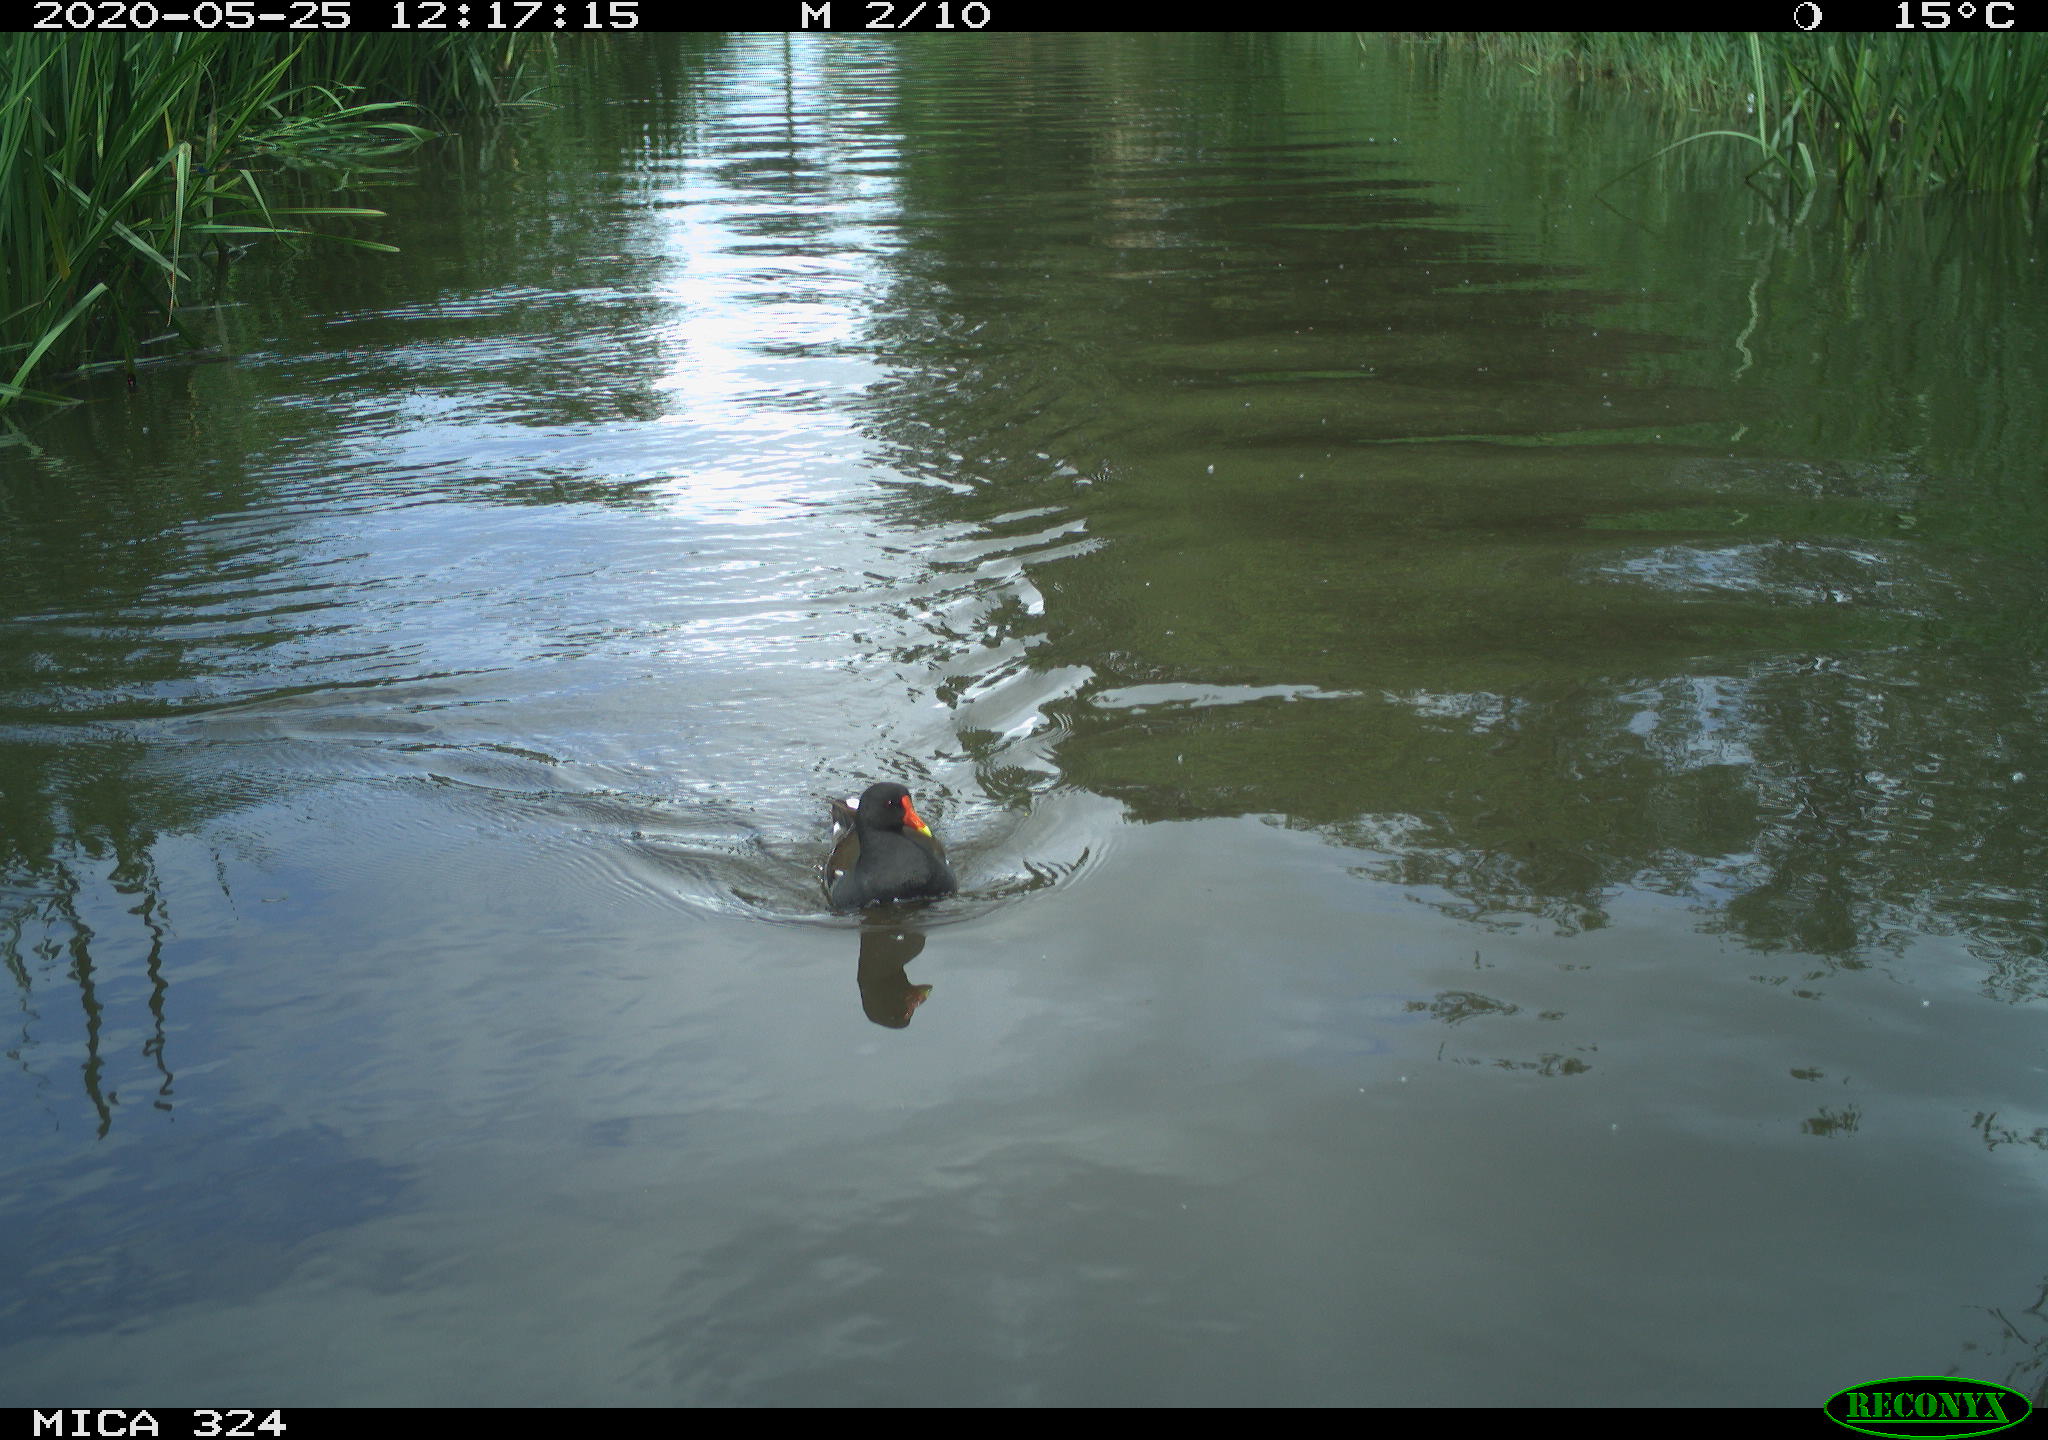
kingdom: Animalia
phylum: Chordata
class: Aves
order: Gruiformes
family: Rallidae
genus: Gallinula
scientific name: Gallinula chloropus
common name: Common moorhen
